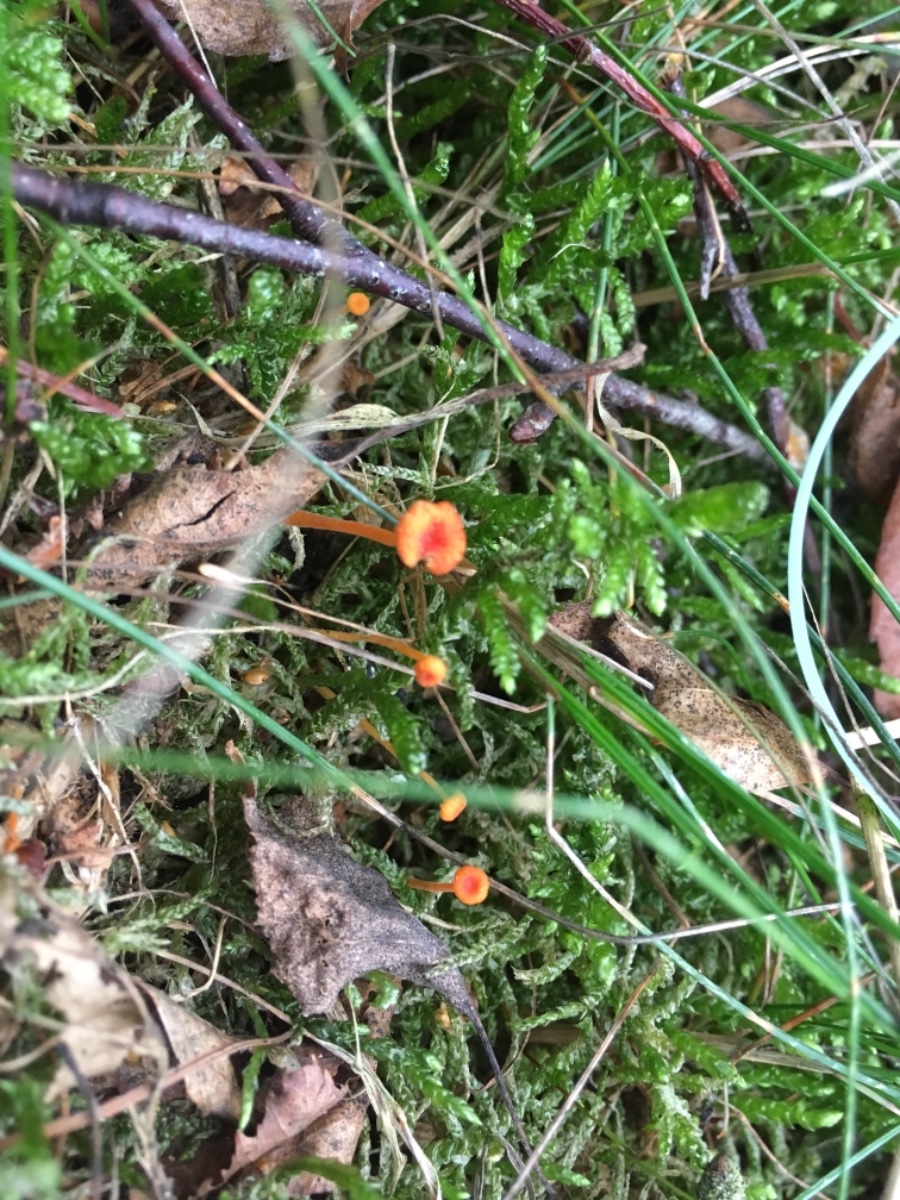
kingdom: Fungi
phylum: Basidiomycota
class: Agaricomycetes
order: Hymenochaetales
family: Rickenellaceae
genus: Rickenella
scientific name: Rickenella fibula
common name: orange mosnavlehat
